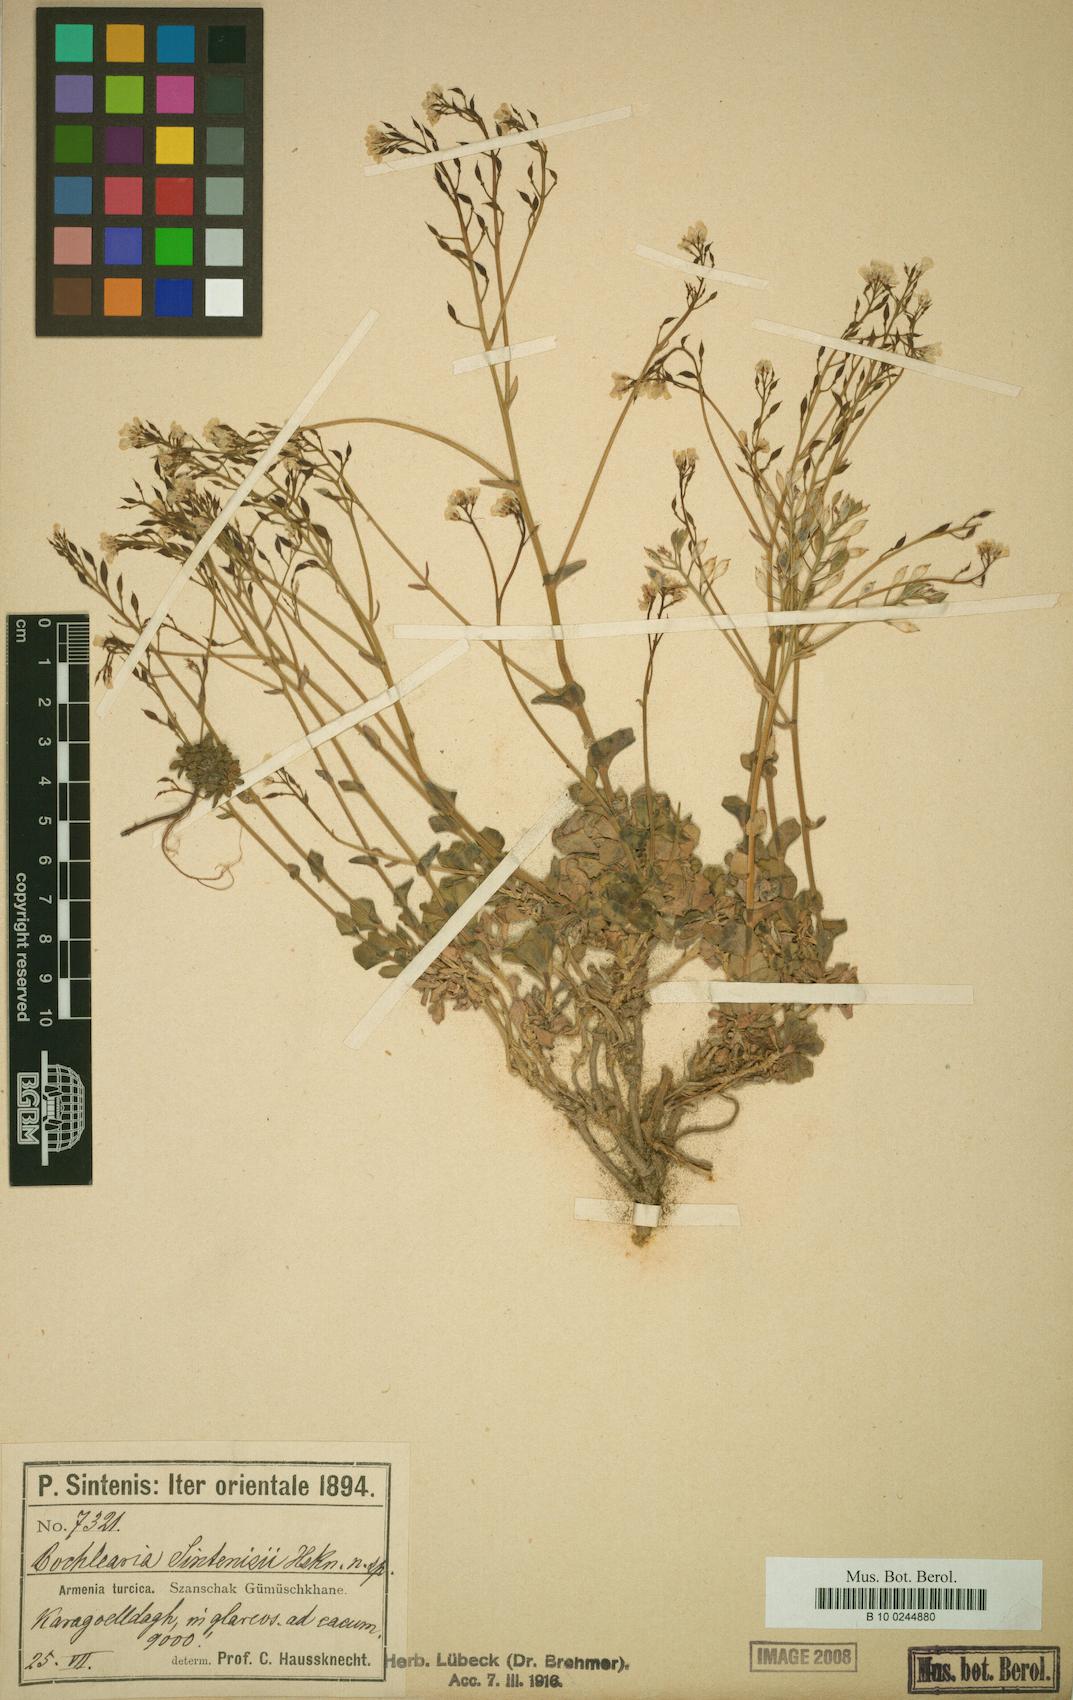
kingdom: Plantae
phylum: Tracheophyta
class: Magnoliopsida
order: Brassicales
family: Brassicaceae
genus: Pseudosempervivum
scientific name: Pseudosempervivum sintenisii
